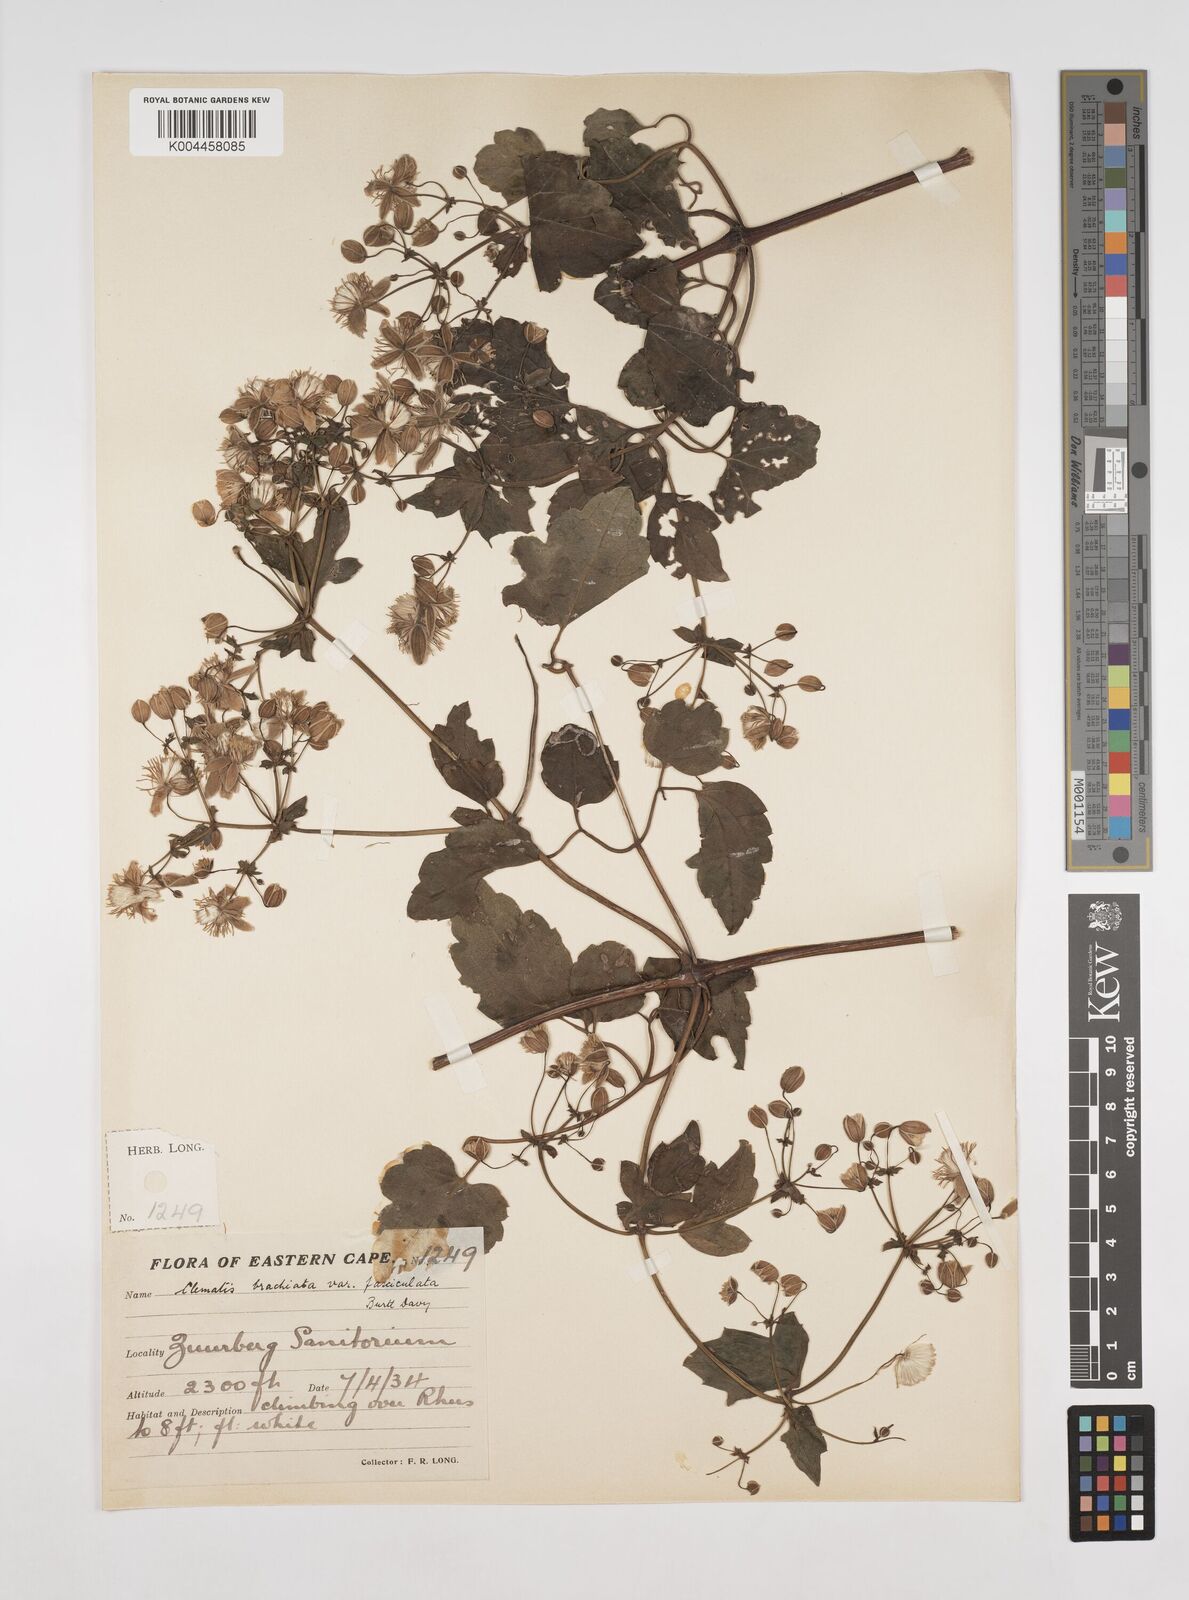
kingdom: Plantae
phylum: Tracheophyta
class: Magnoliopsida
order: Ranunculales
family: Ranunculaceae
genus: Clematis
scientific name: Clematis brachiata
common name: Traveler's-joy
